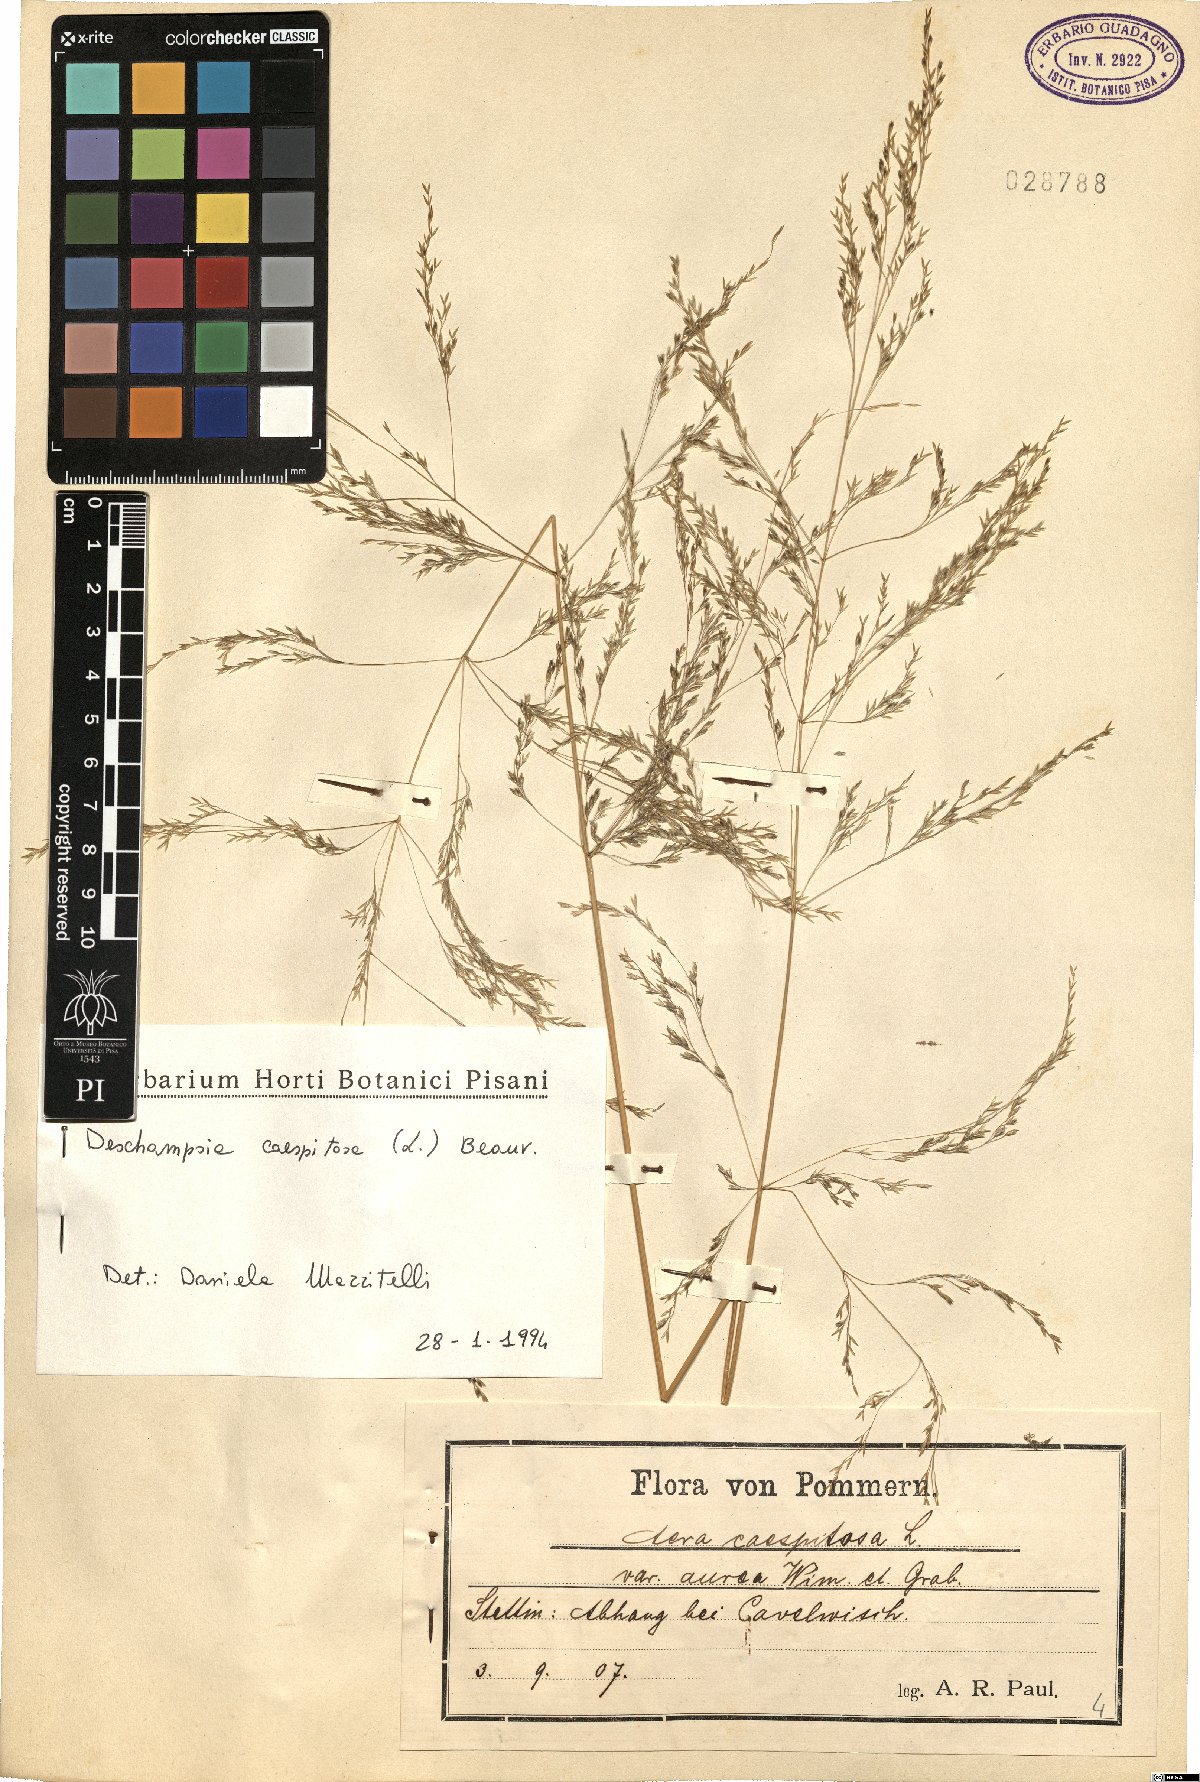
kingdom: Plantae
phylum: Tracheophyta
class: Liliopsida
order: Poales
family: Poaceae
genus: Deschampsia
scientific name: Deschampsia cespitosa
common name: Tufted hair-grass
